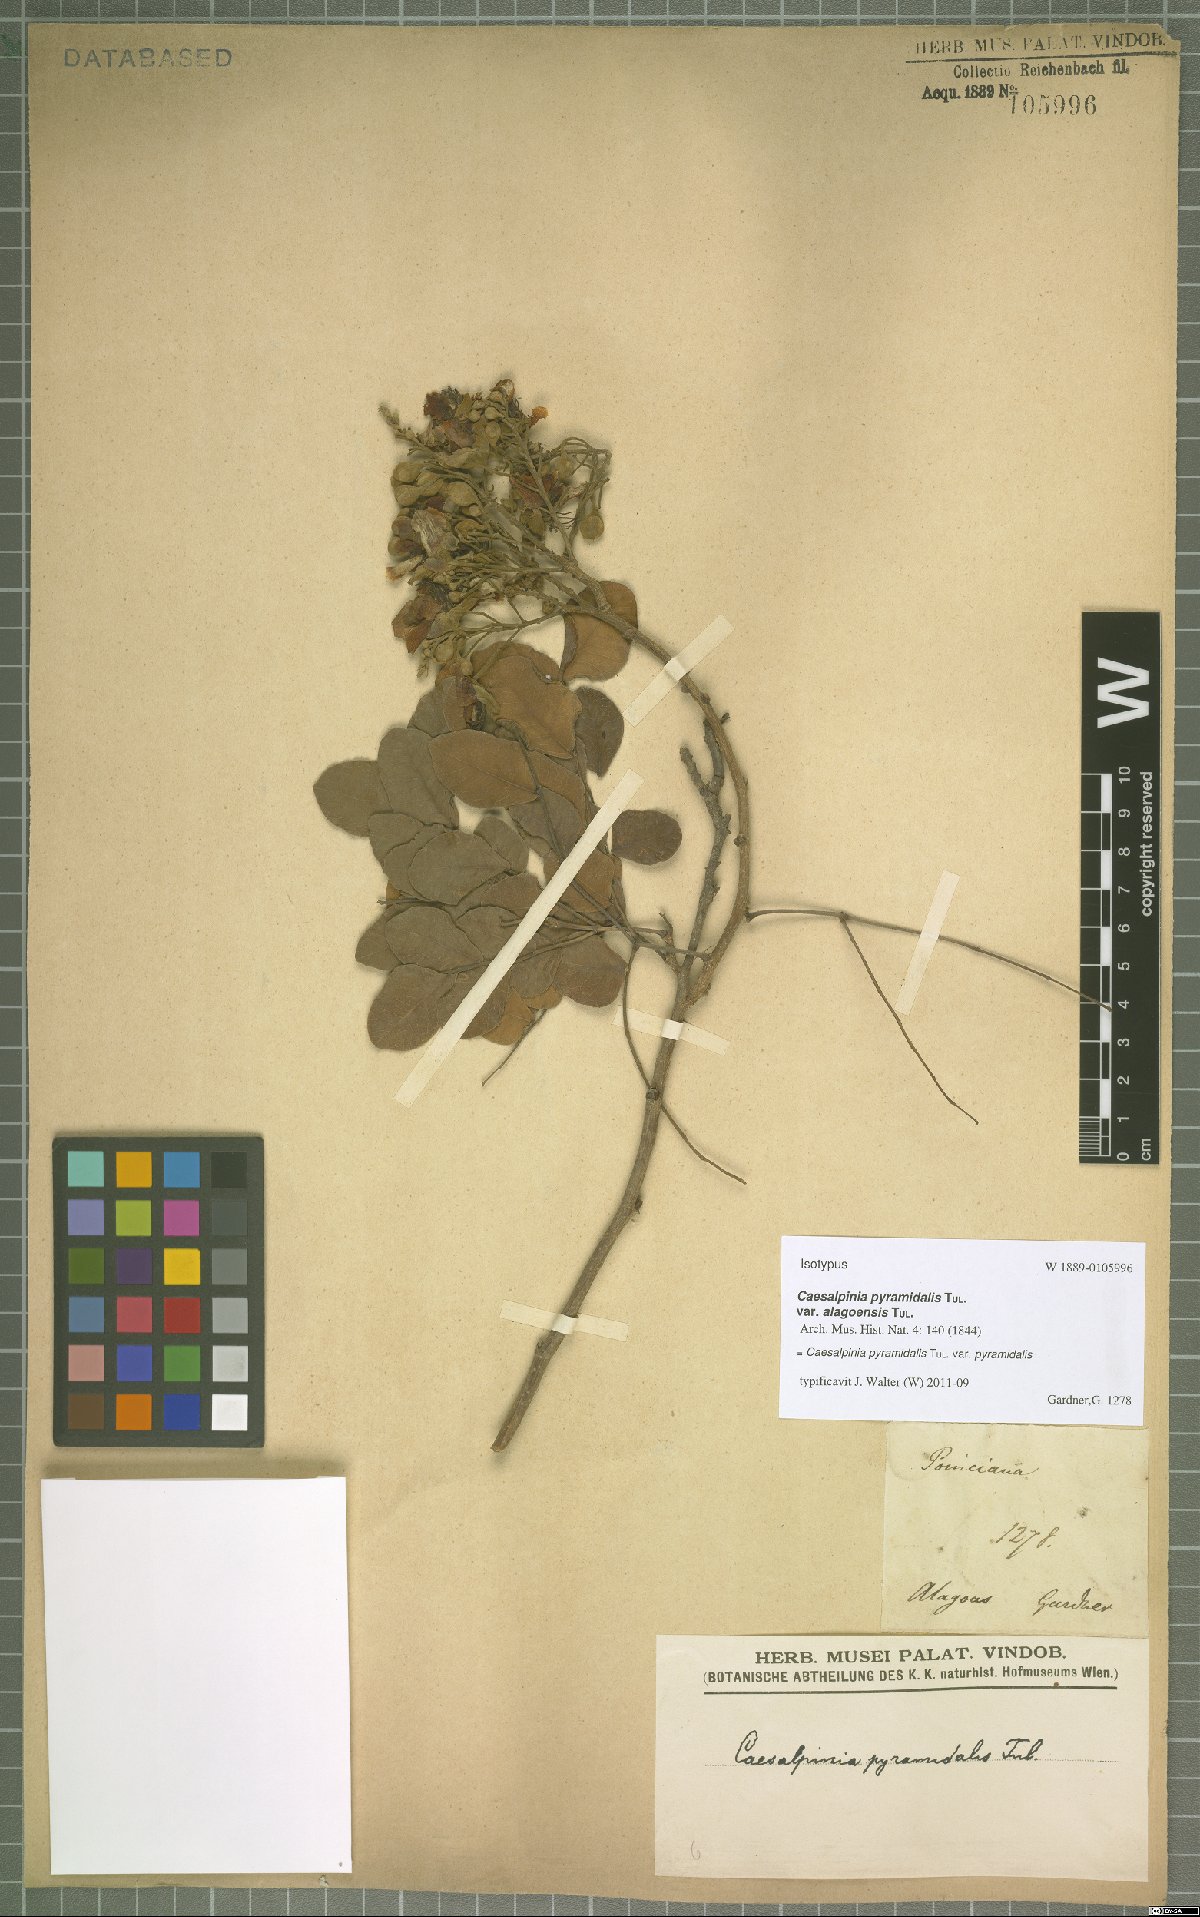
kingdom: Plantae
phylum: Tracheophyta
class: Magnoliopsida
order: Fabales
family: Fabaceae
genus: Cenostigma
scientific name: Cenostigma pyramidale
